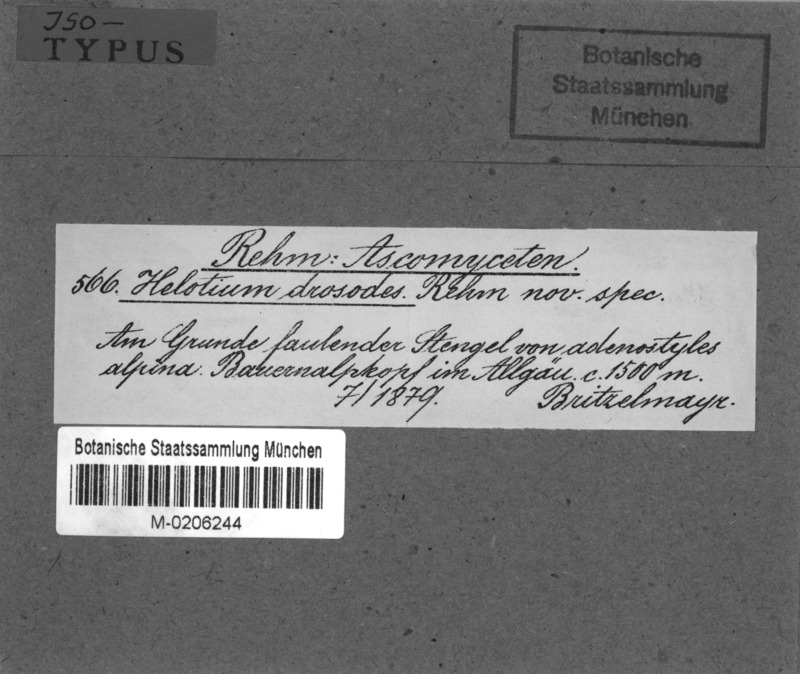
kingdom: Fungi
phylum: Ascomycota
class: Leotiomycetes
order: Helotiales
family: Pezizellaceae
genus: Calycina
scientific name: Calycina drosodes
